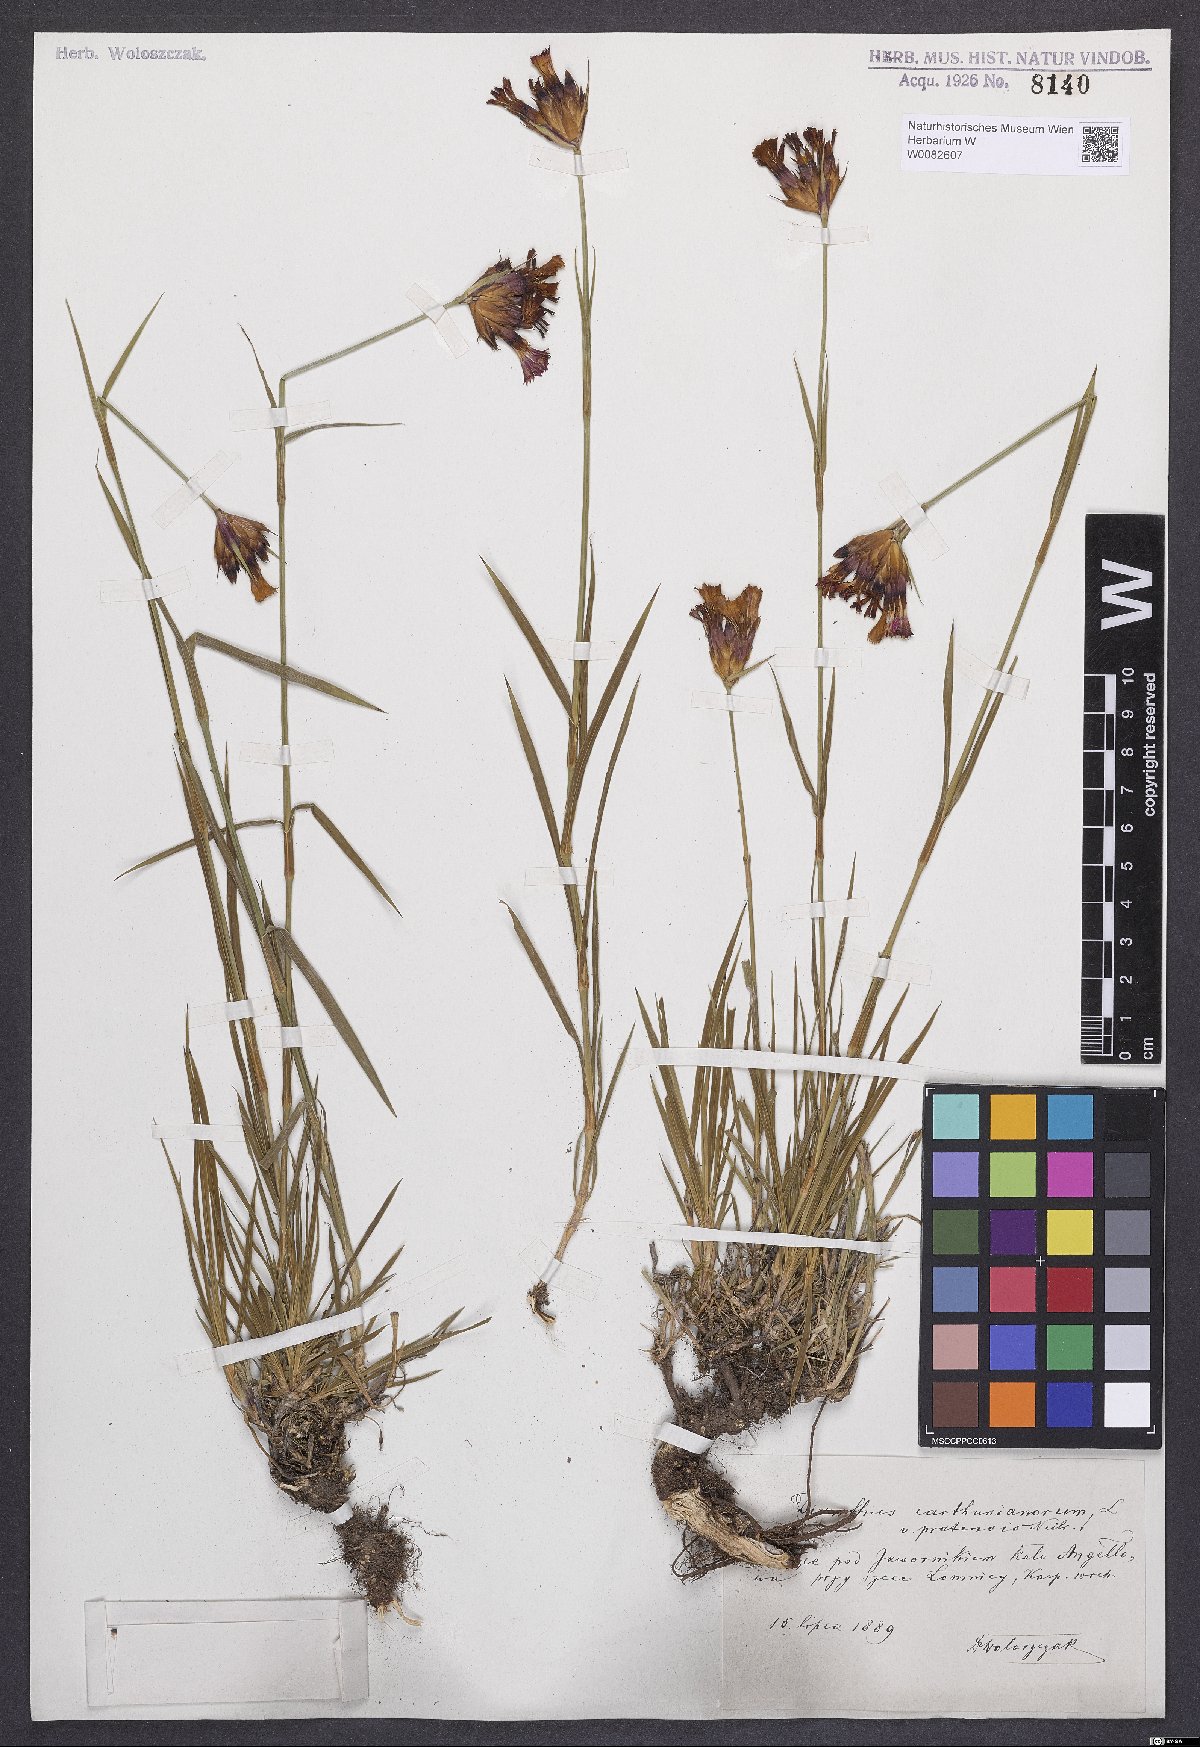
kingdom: Plantae
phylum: Tracheophyta
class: Magnoliopsida
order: Caryophyllales
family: Caryophyllaceae
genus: Dianthus
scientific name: Dianthus carthusianorum
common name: Carthusian pink
